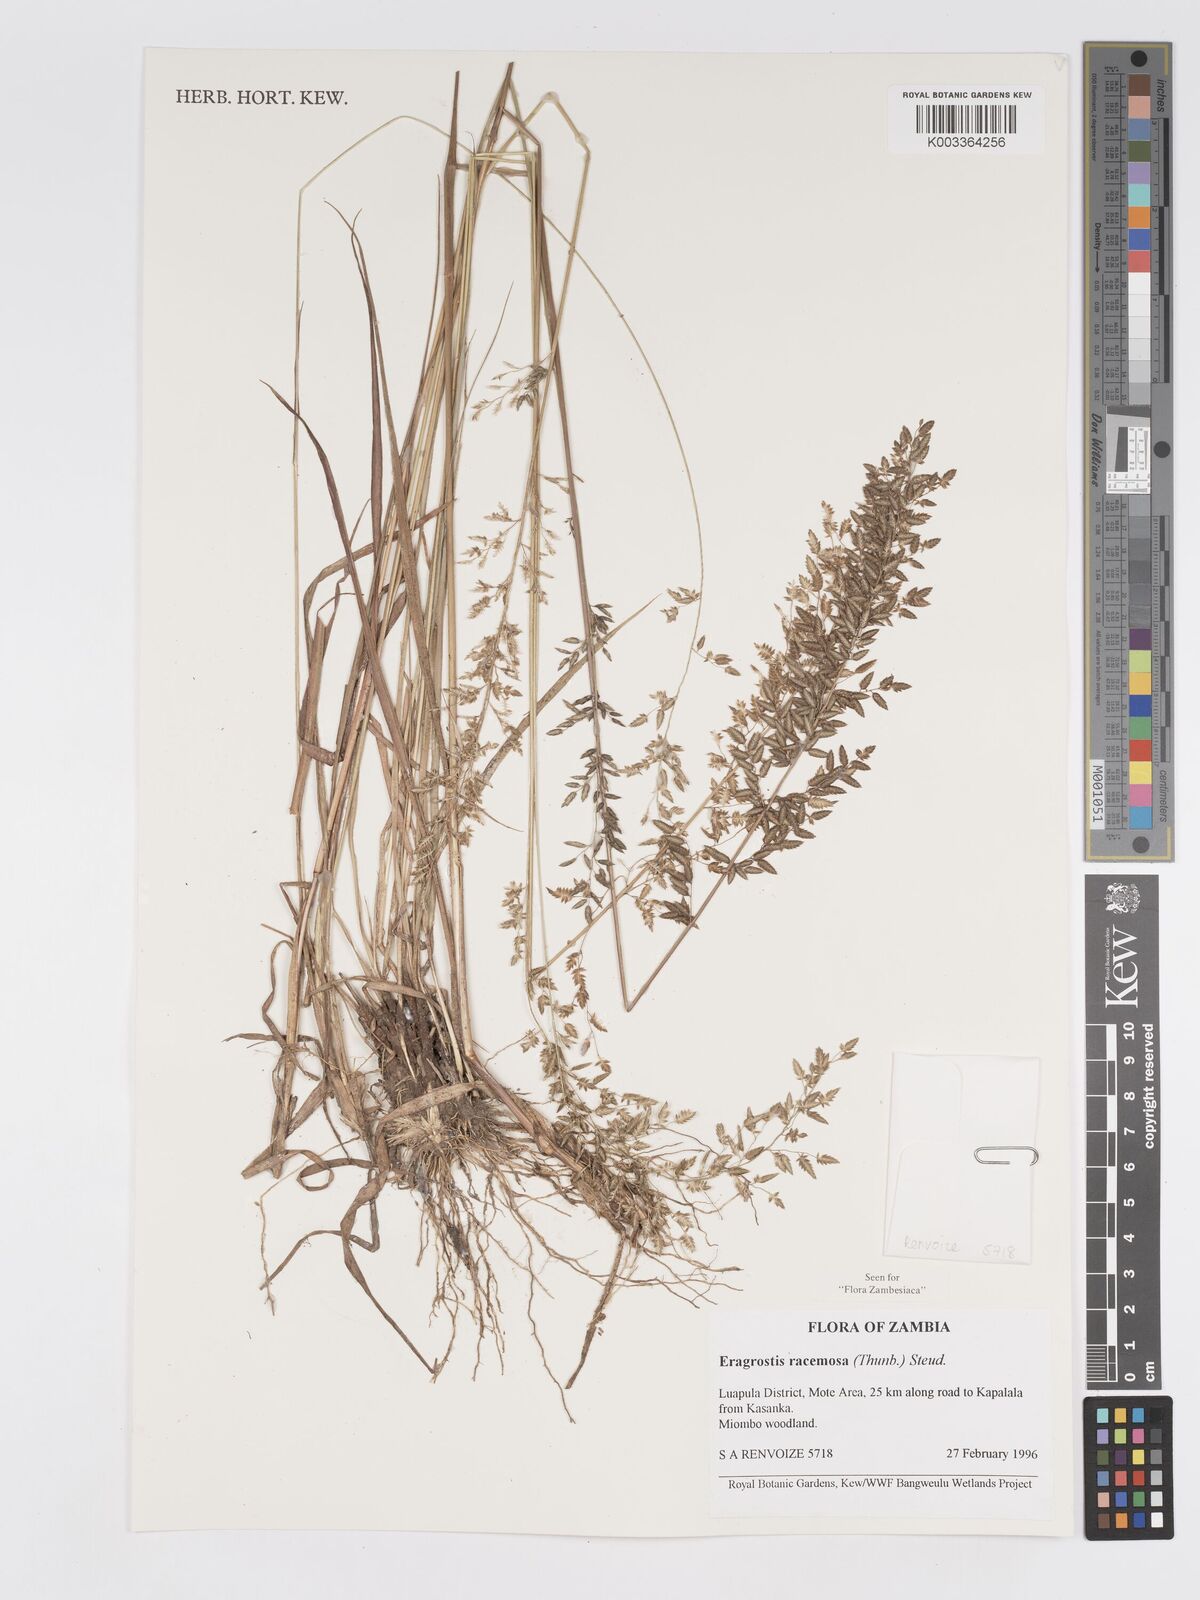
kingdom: Plantae
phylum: Tracheophyta
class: Liliopsida
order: Poales
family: Poaceae
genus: Eragrostis
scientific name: Eragrostis racemosa
